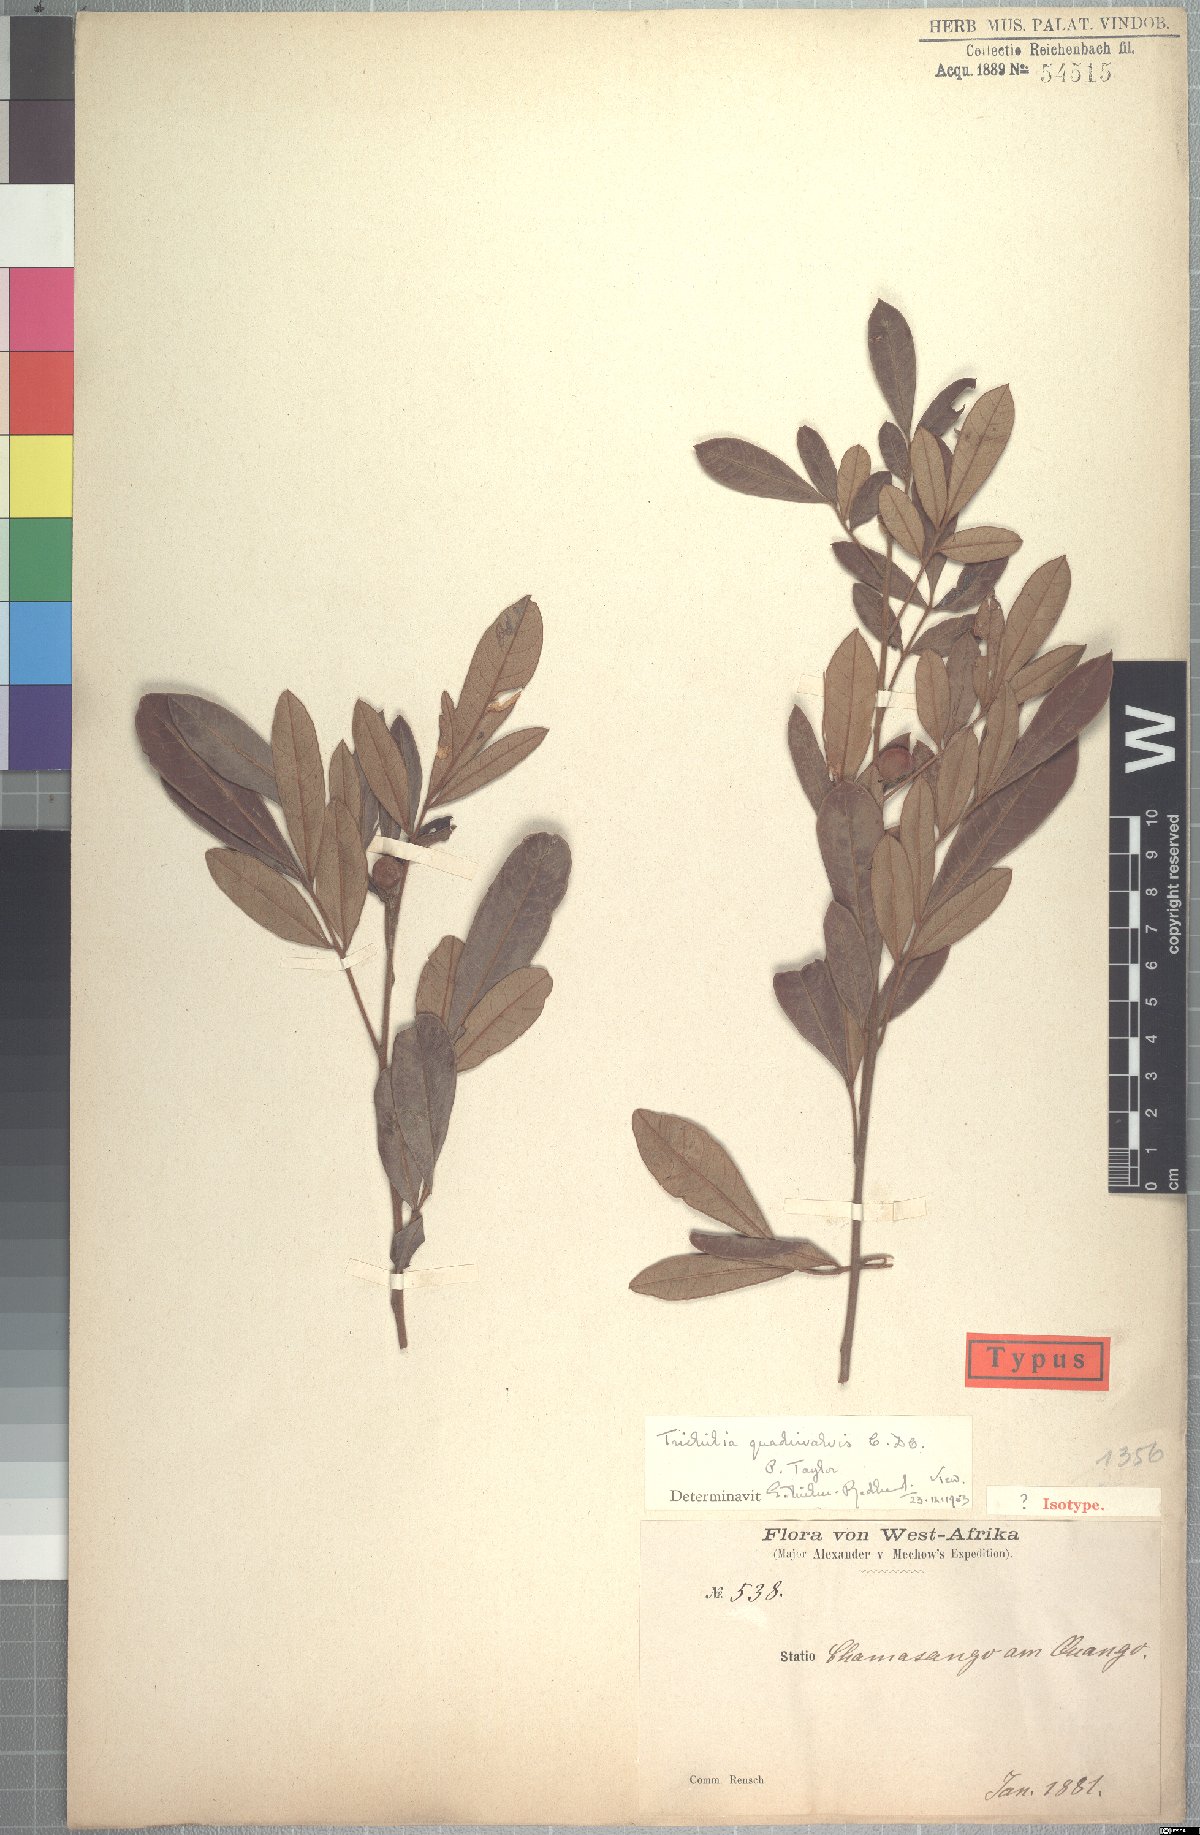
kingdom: Plantae
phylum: Tracheophyta
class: Magnoliopsida
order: Sapindales
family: Meliaceae
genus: Trichilia
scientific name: Trichilia quadrivalvis
